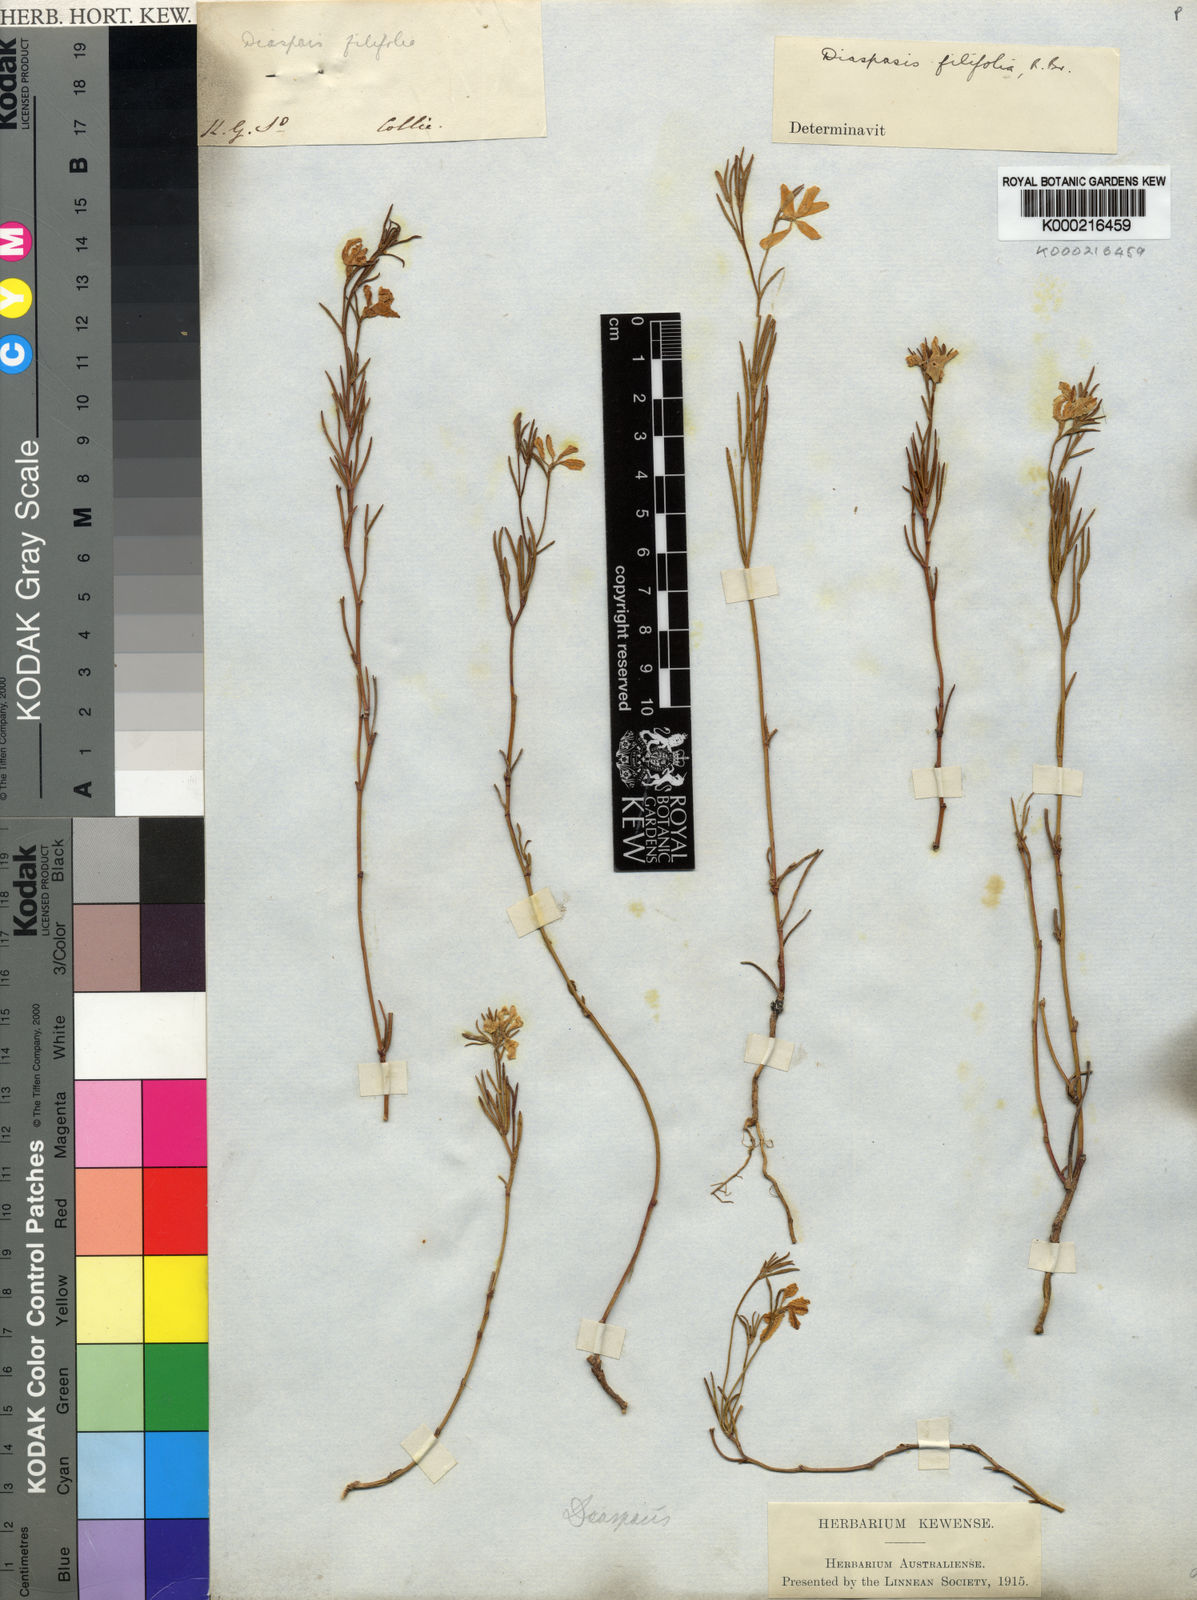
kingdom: Plantae
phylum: Tracheophyta
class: Magnoliopsida
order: Asterales
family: Goodeniaceae
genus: Scaevola
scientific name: Scaevola filifolia
